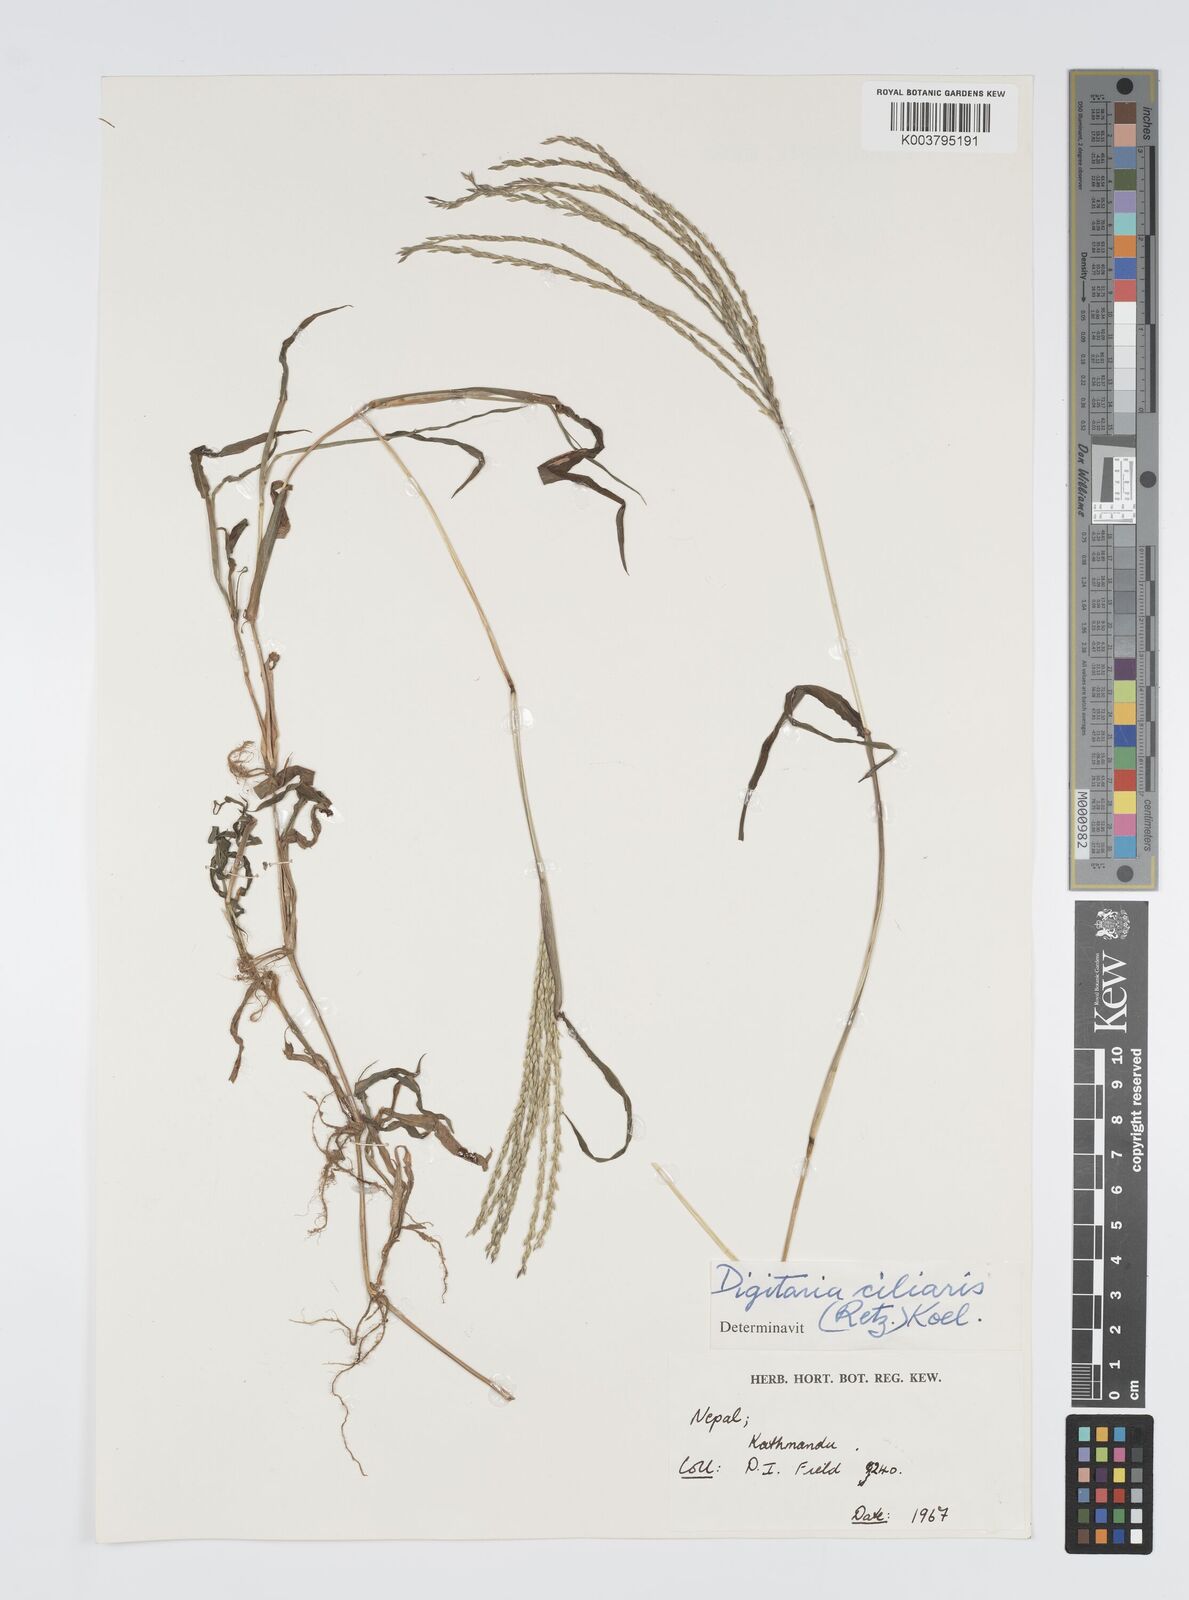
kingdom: Plantae
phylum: Tracheophyta
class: Liliopsida
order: Poales
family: Poaceae
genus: Digitaria
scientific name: Digitaria ciliaris
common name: Tropical finger-grass
